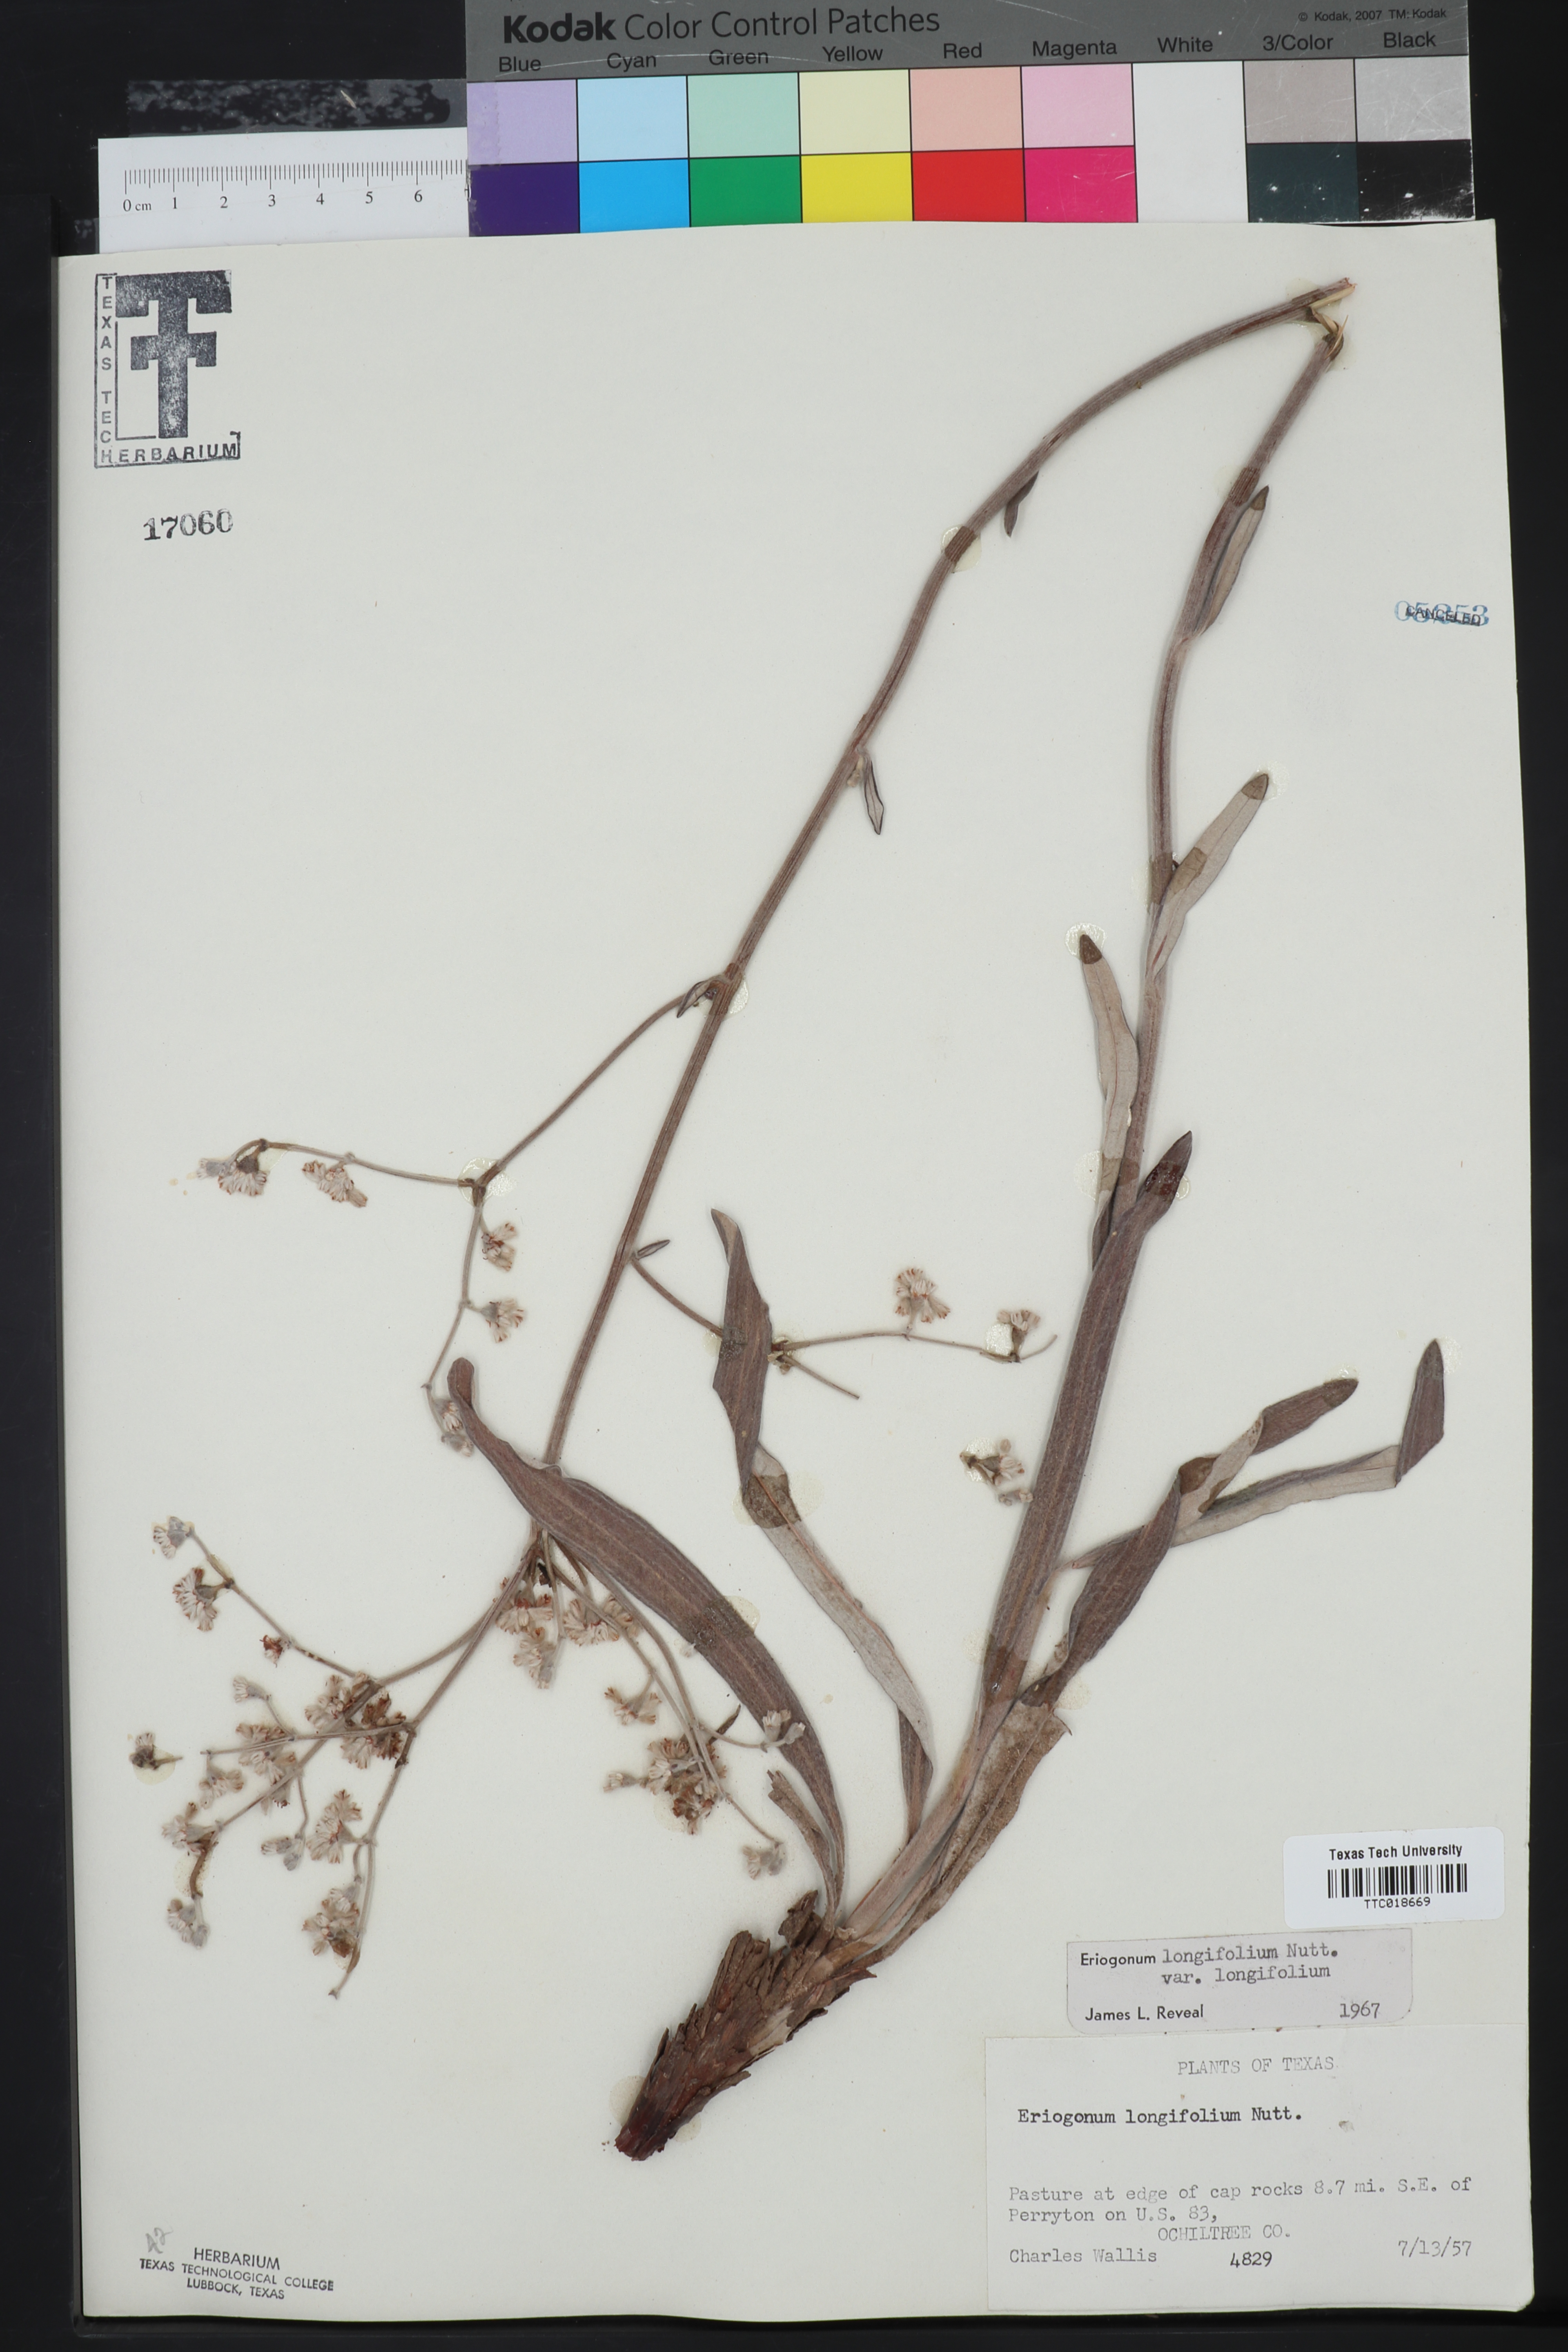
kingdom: Plantae
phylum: Tracheophyta
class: Magnoliopsida
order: Caryophyllales
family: Polygonaceae
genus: Eriogonum
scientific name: Eriogonum longifolium
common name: Longleaf wild buckwheat
